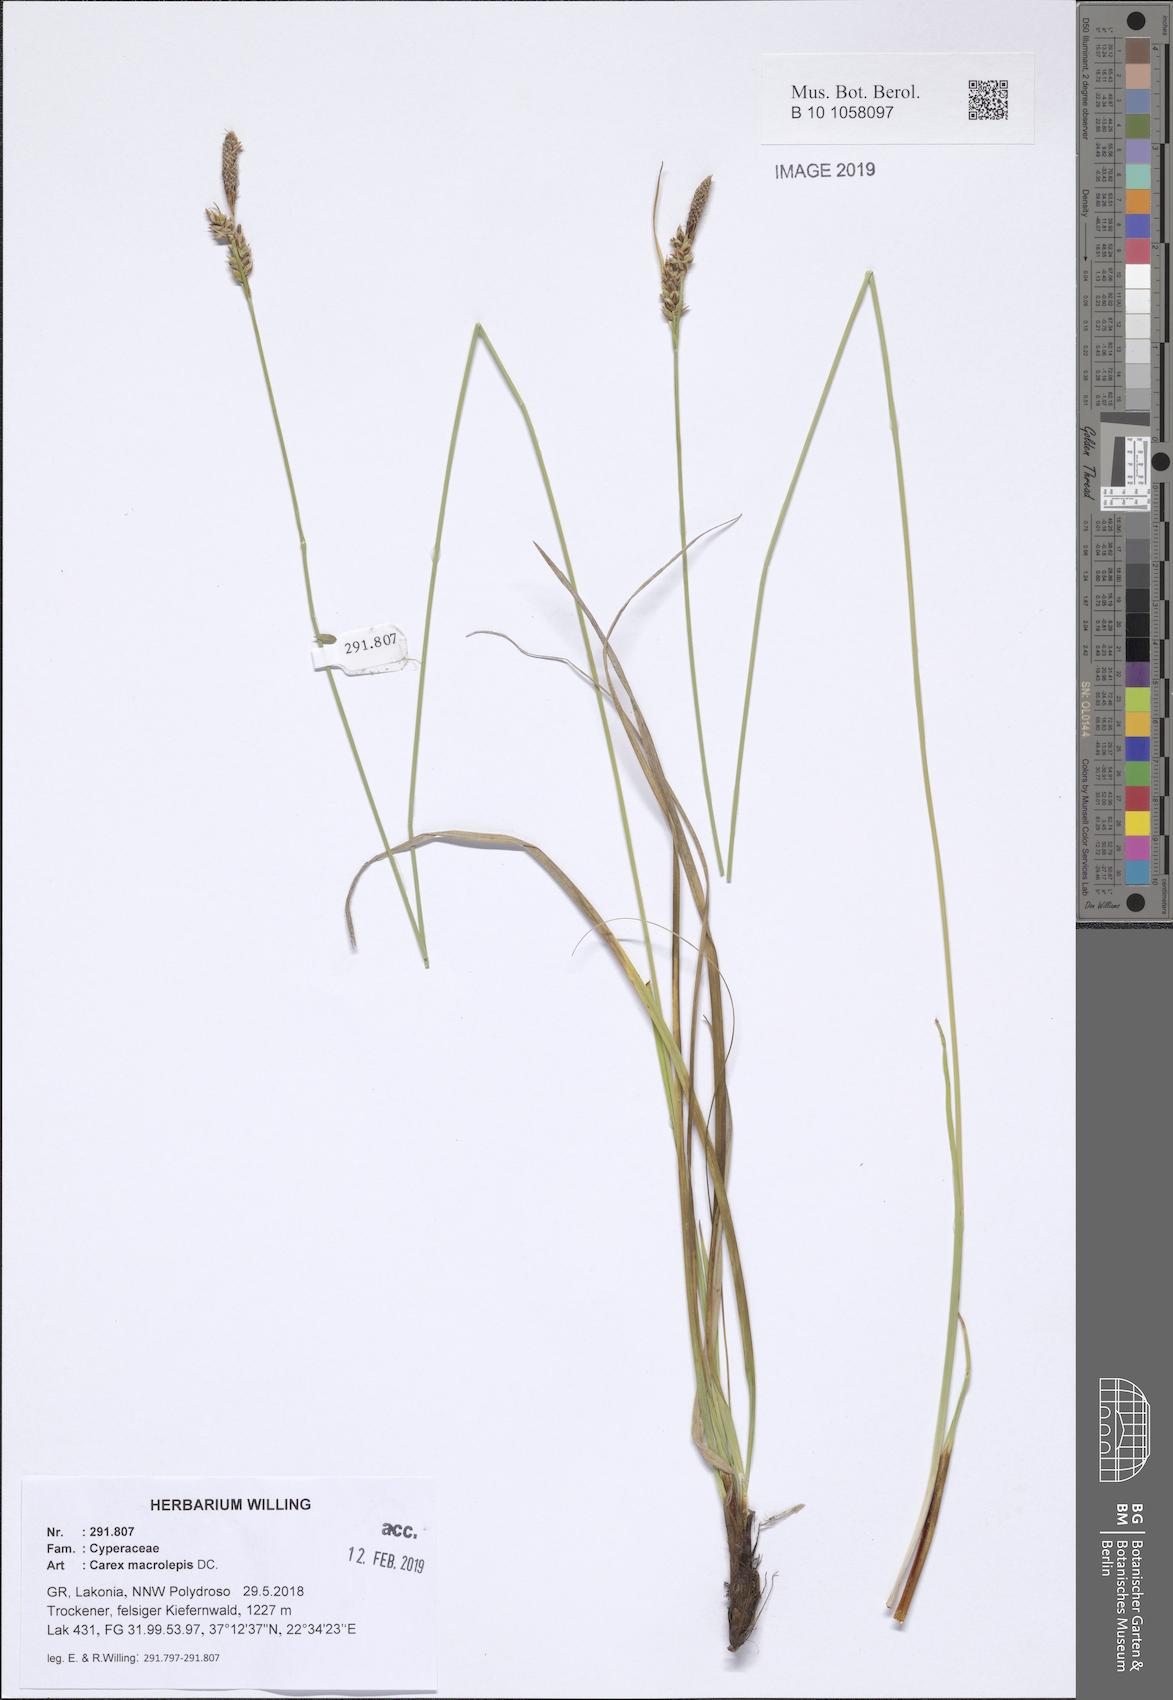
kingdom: Plantae
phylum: Tracheophyta
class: Liliopsida
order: Poales
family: Cyperaceae
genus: Carex
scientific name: Carex macrolepis
